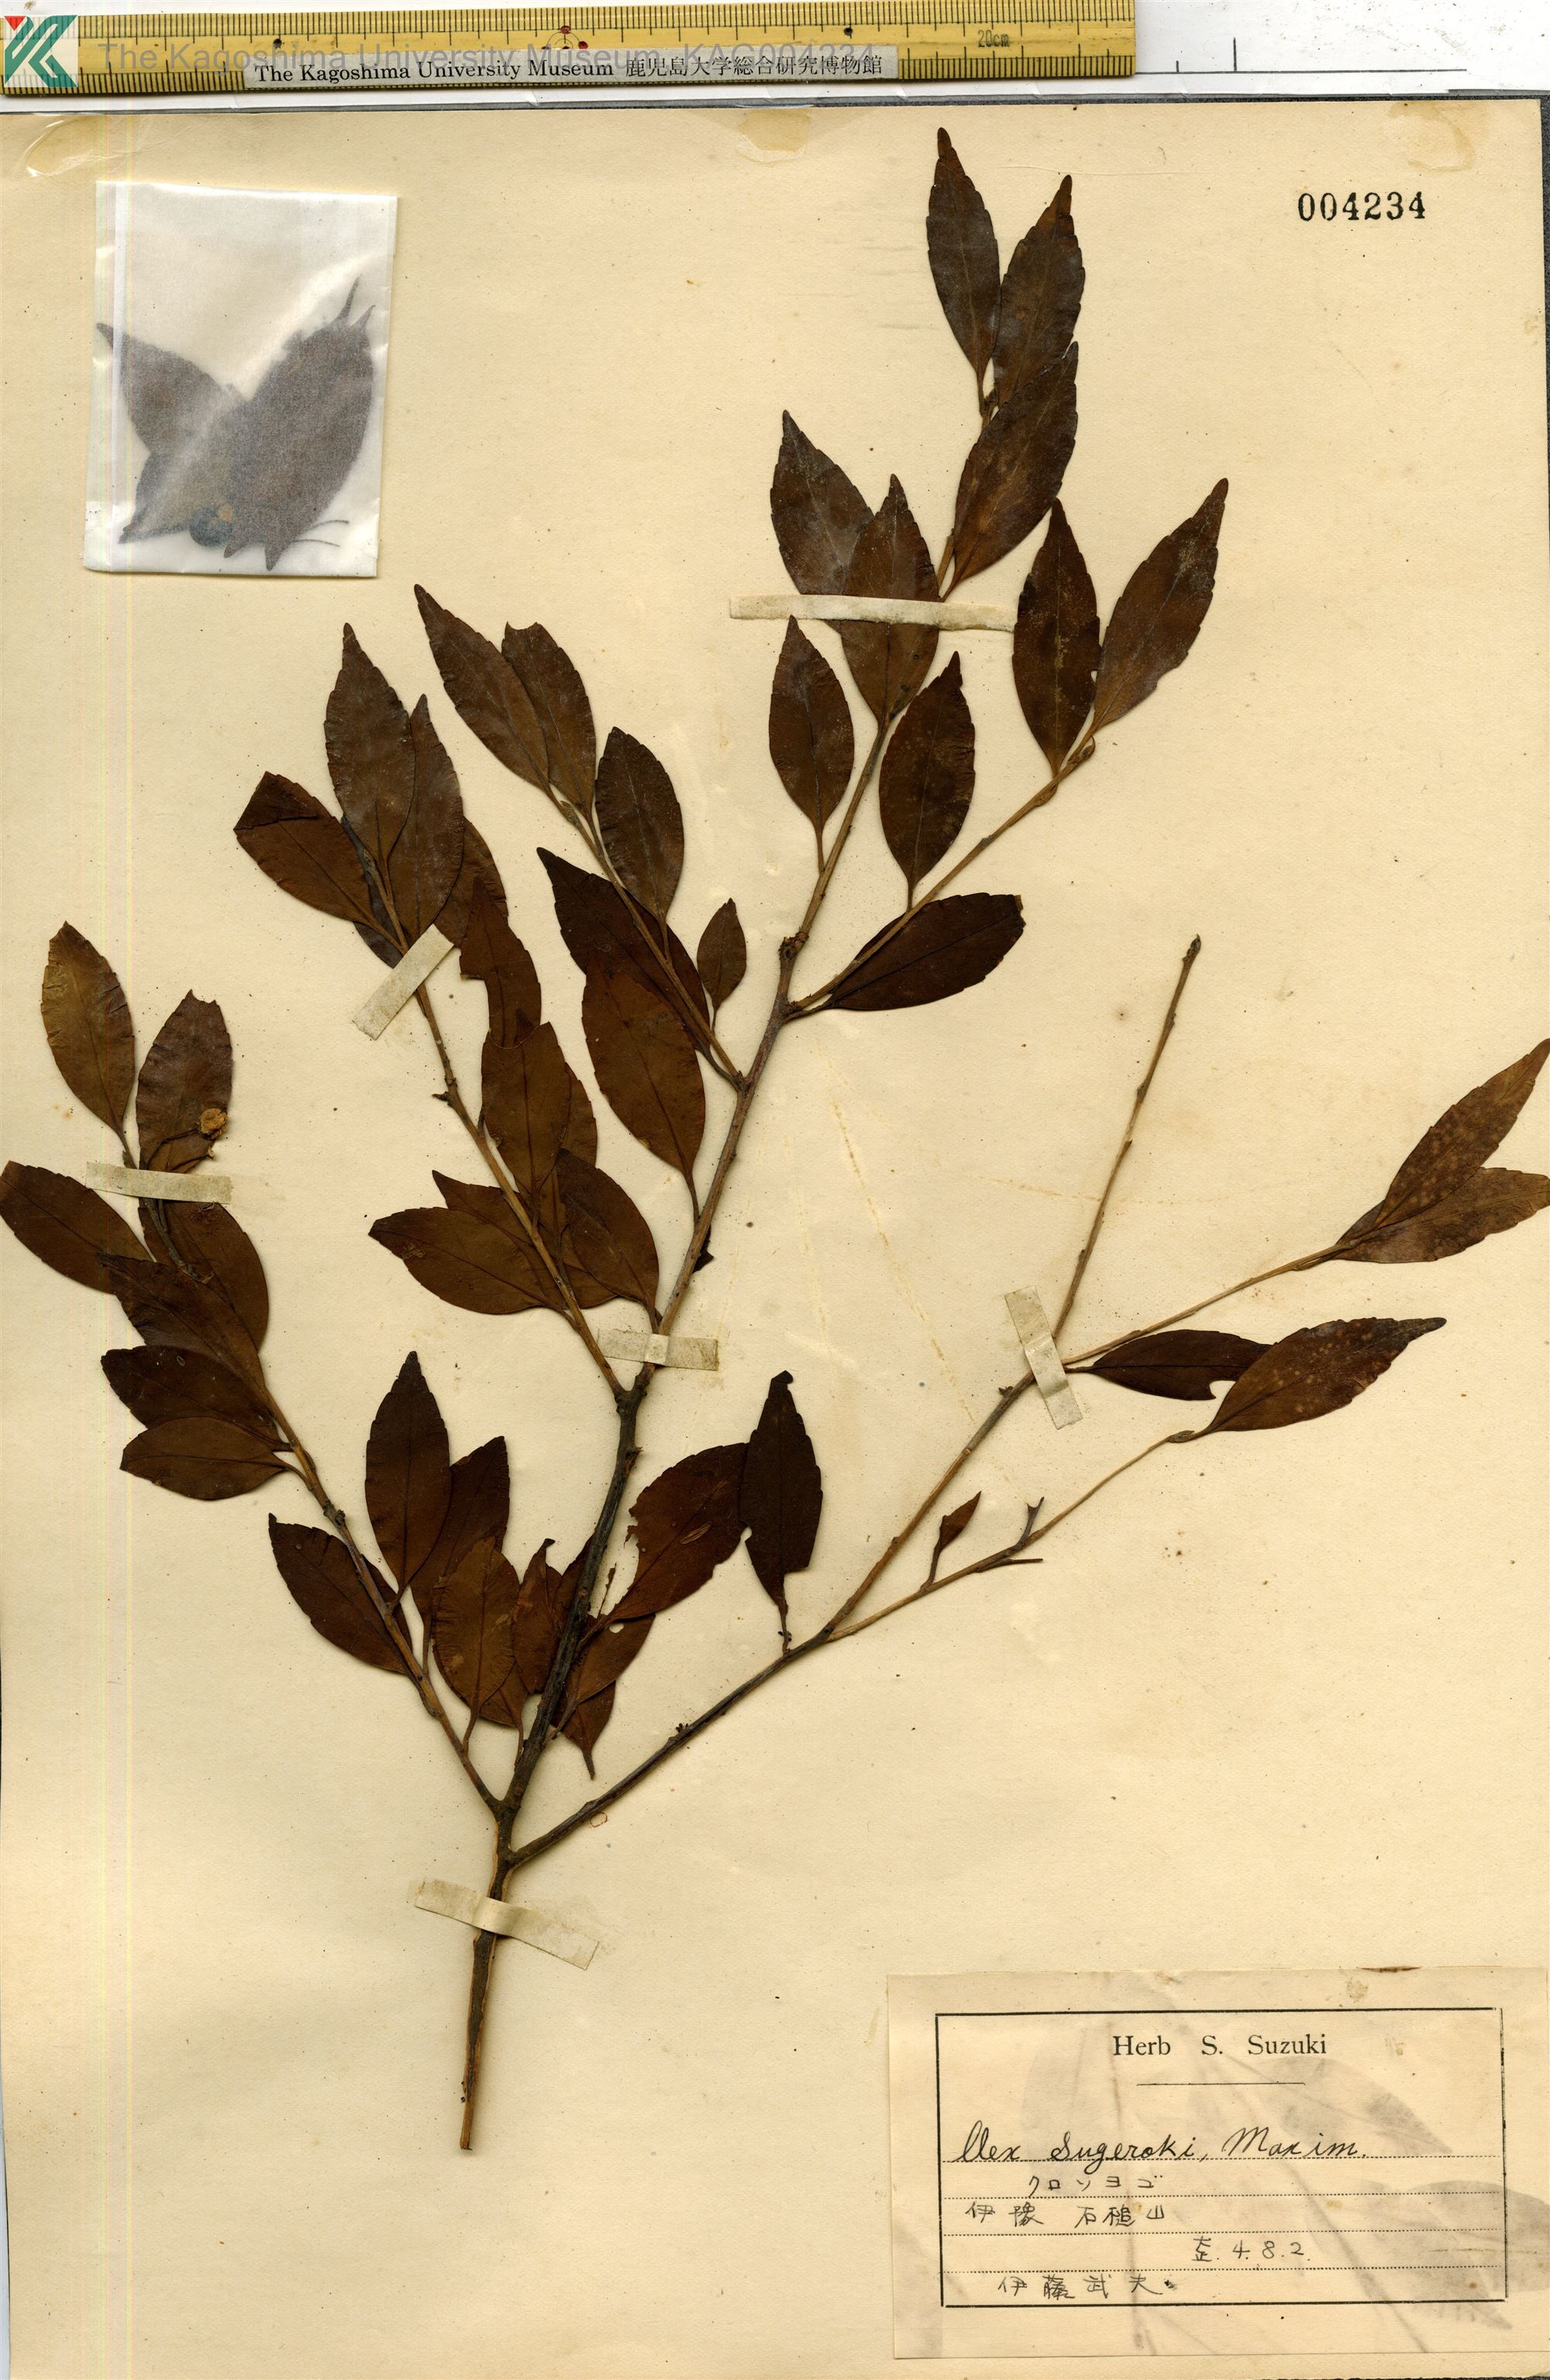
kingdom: Plantae
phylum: Tracheophyta
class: Magnoliopsida
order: Aquifoliales
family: Aquifoliaceae
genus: Ilex
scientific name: Ilex sugerokii
